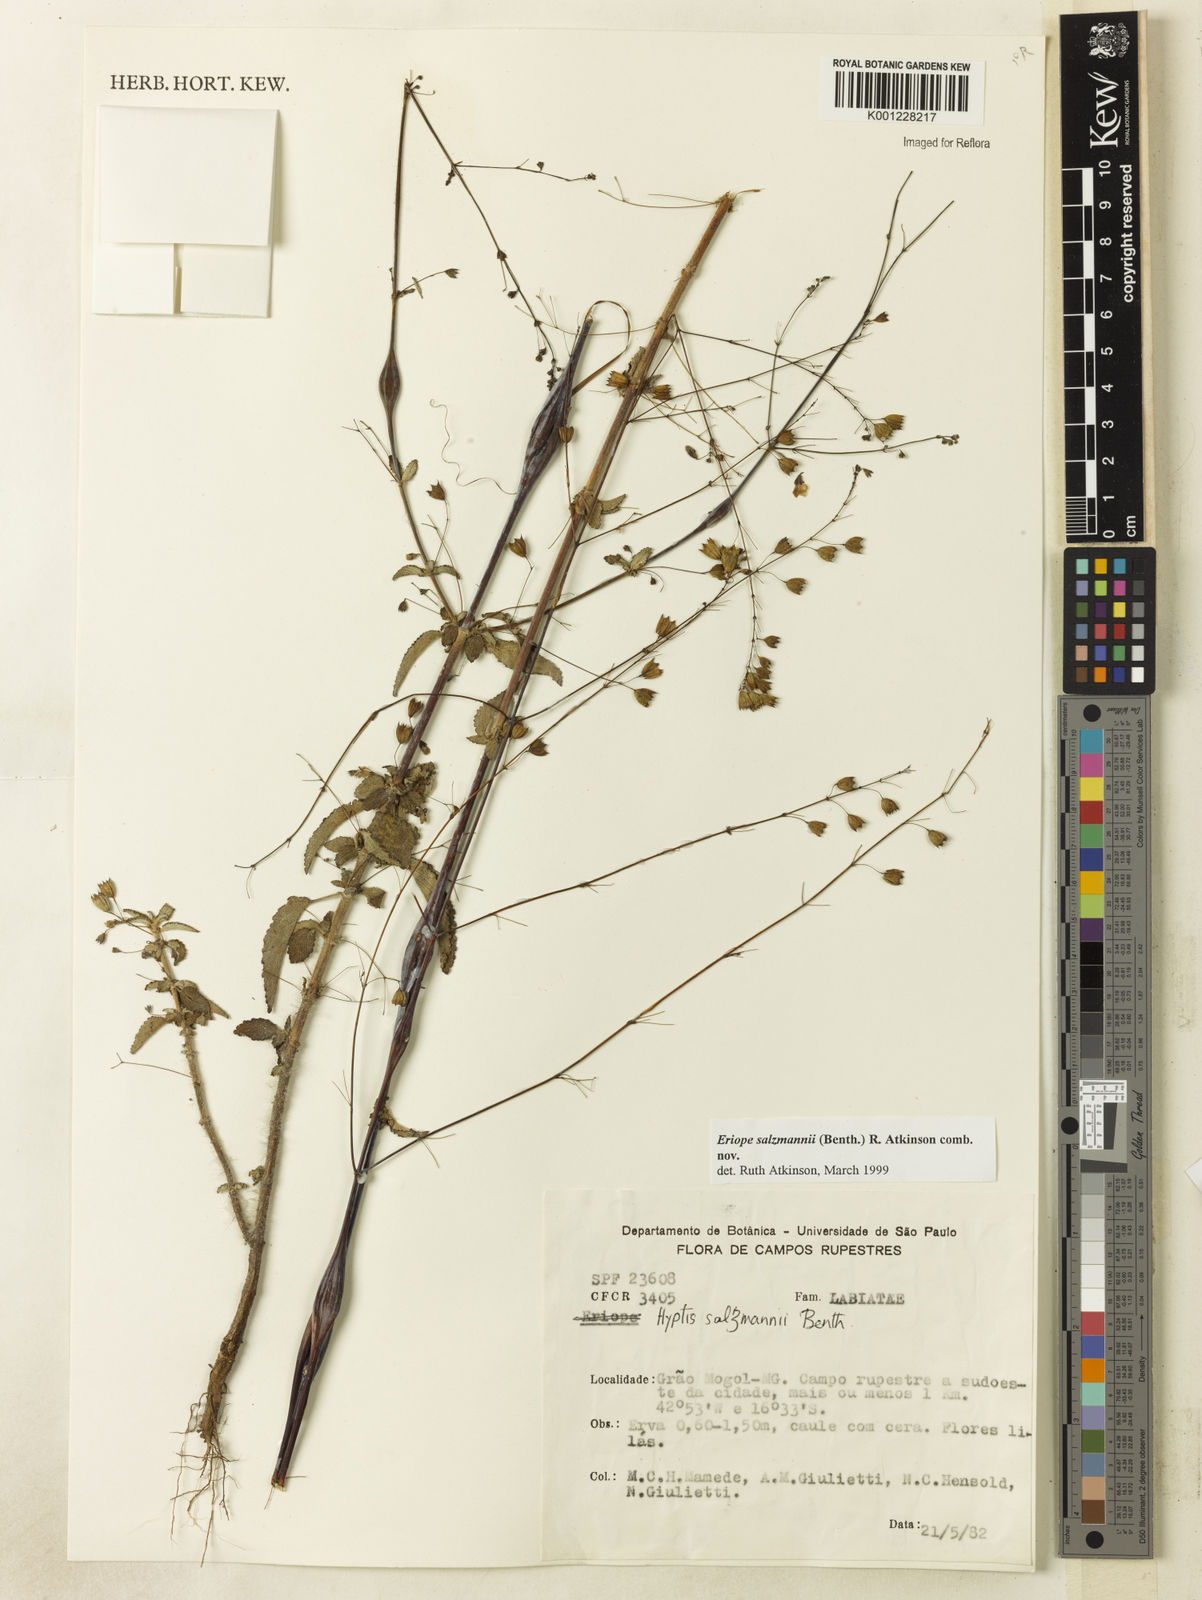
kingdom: Plantae
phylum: Tracheophyta
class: Magnoliopsida
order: Lamiales
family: Lamiaceae
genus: Hypenia
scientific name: Hypenia salzmannii
